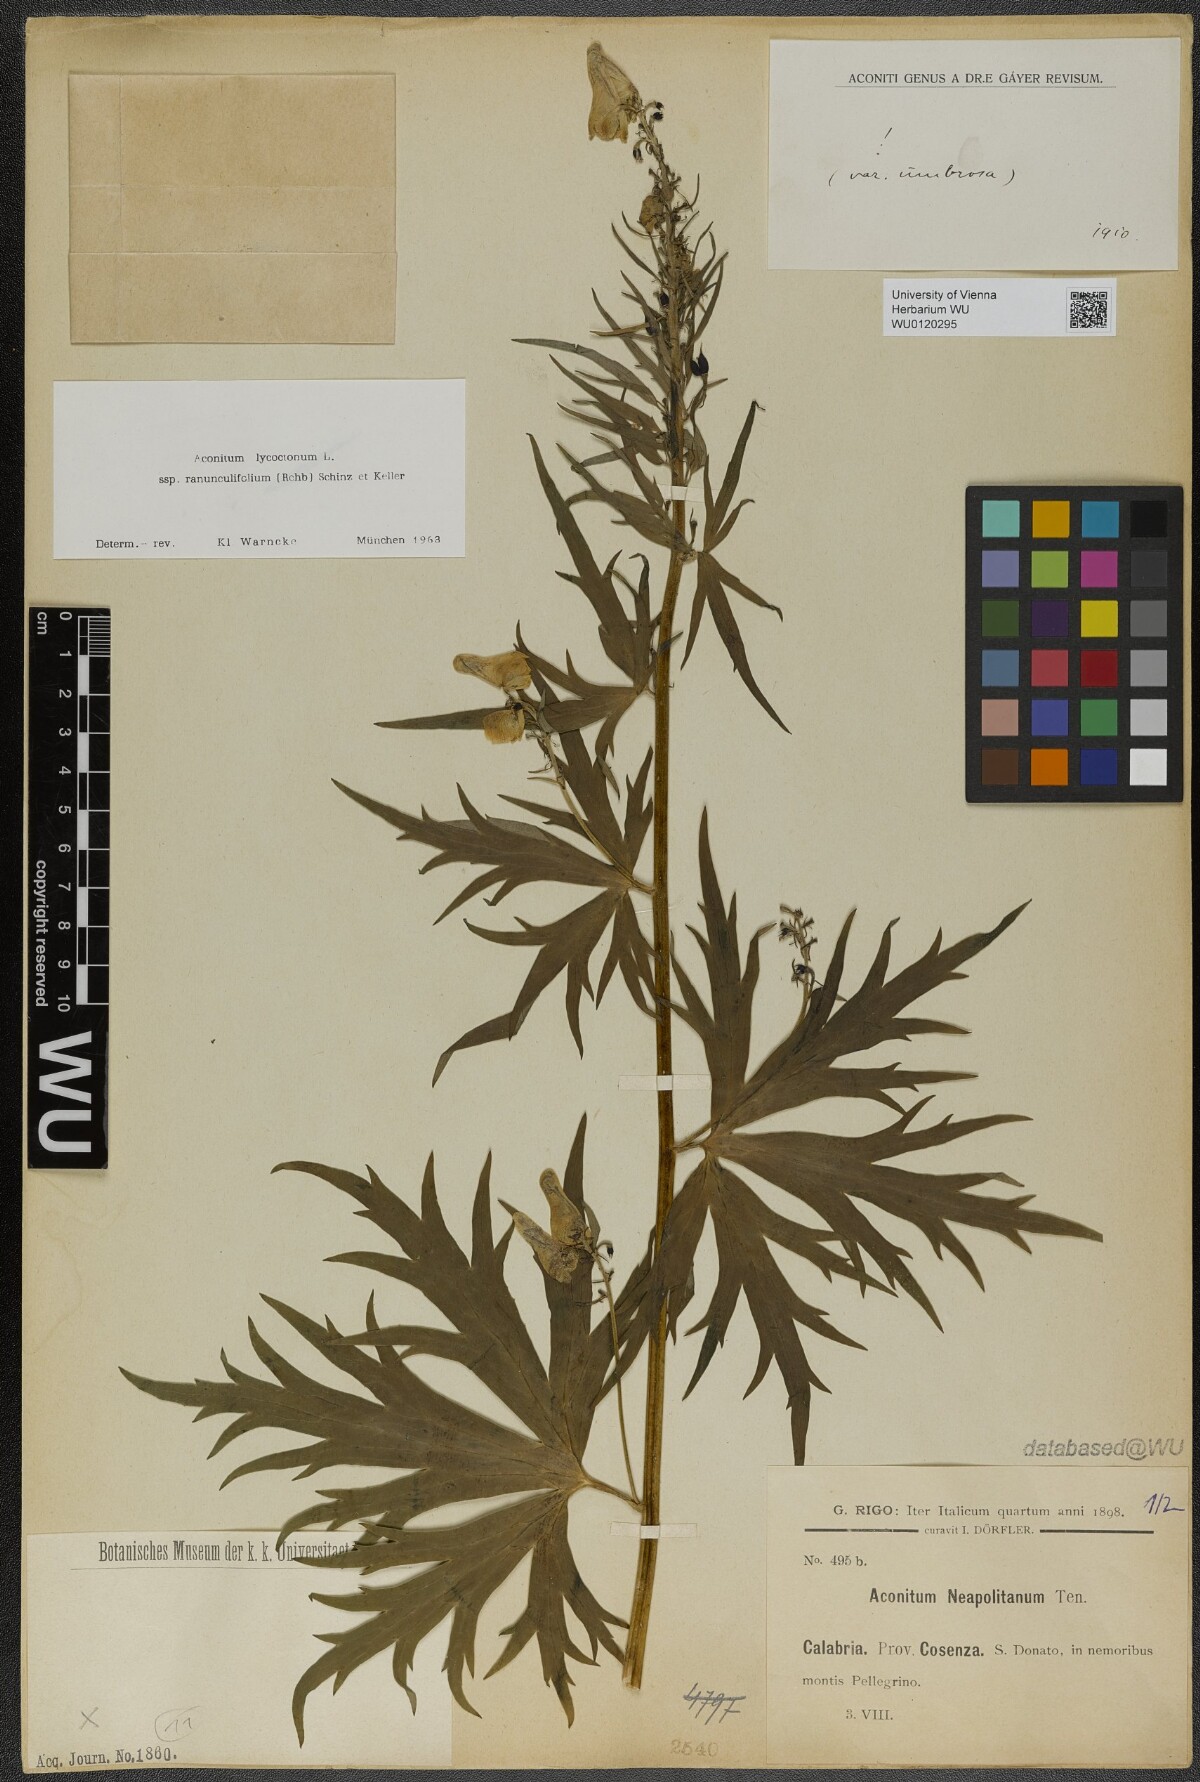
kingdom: Plantae
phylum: Tracheophyta
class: Magnoliopsida
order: Ranunculales
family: Ranunculaceae
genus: Aconitum
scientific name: Aconitum lycoctonum
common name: Wolf's-bane
